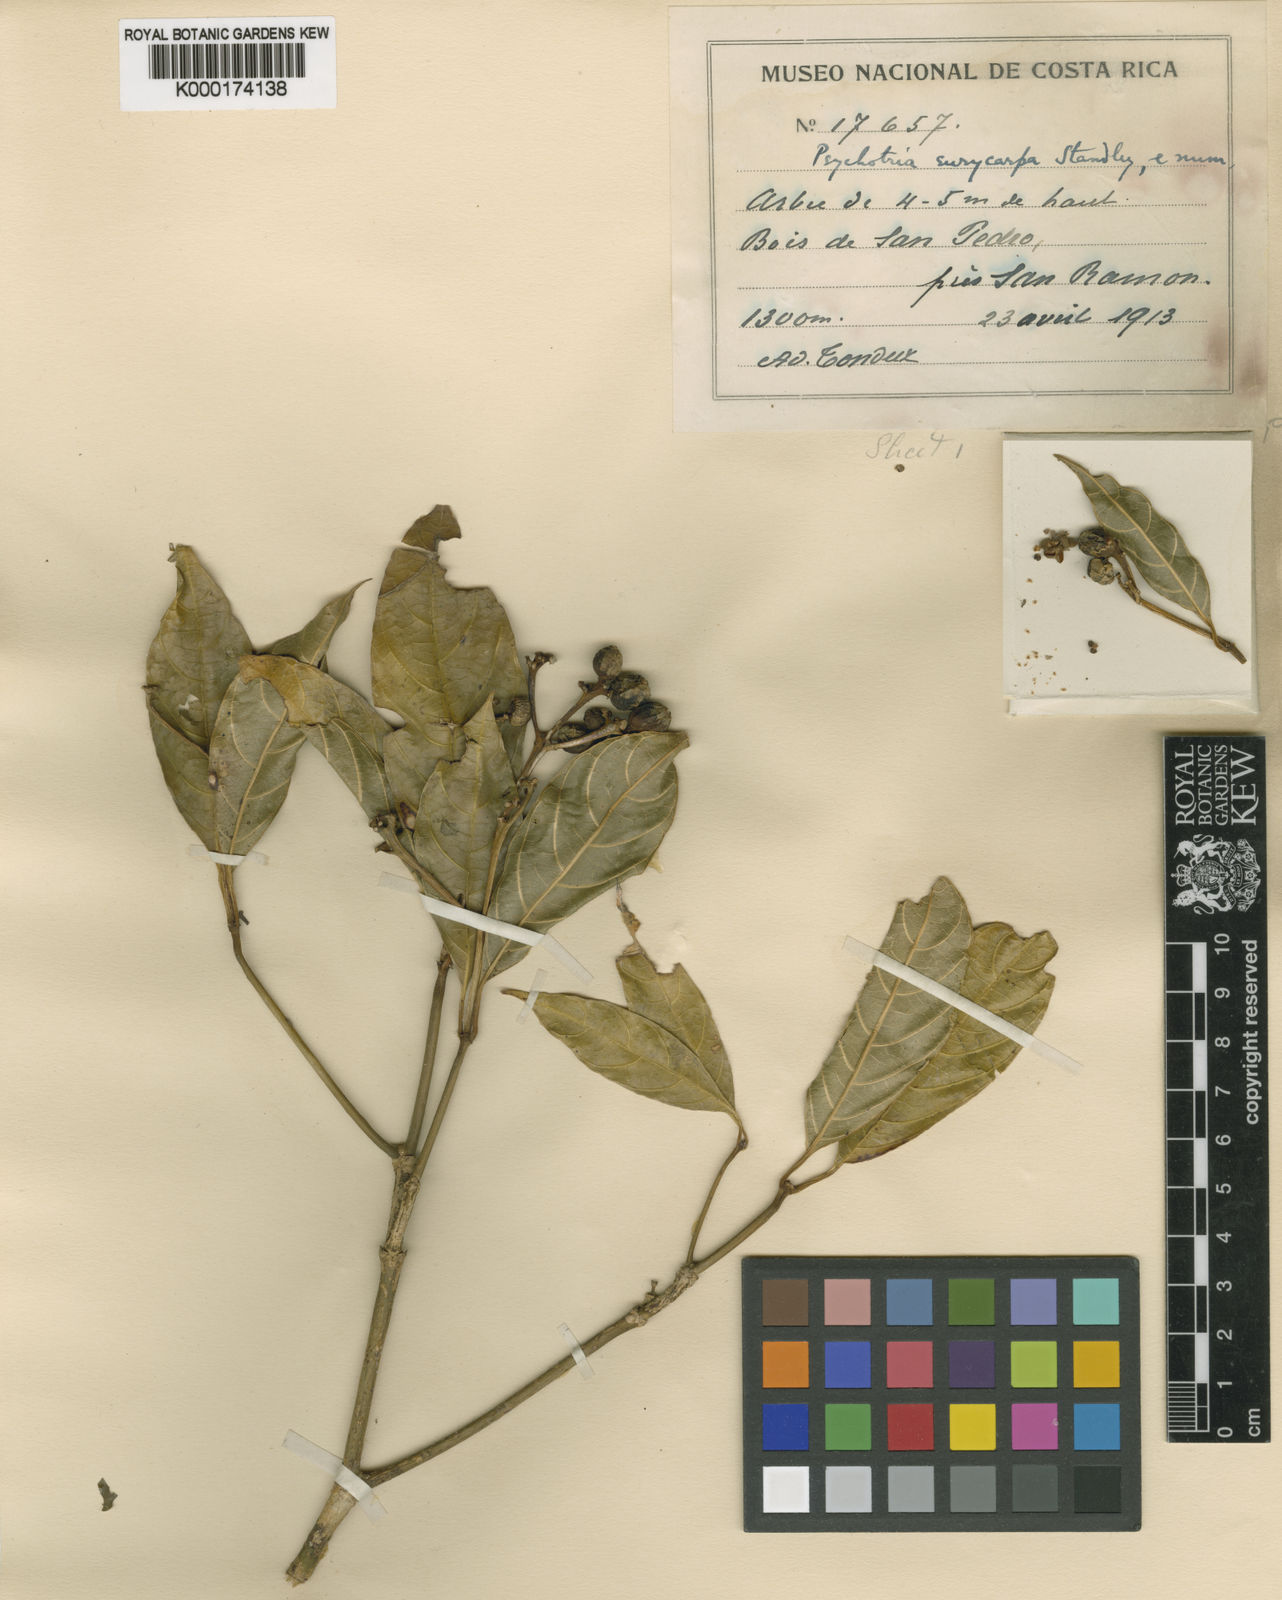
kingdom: Plantae
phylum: Tracheophyta
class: Magnoliopsida
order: Gentianales
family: Rubiaceae
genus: Palicourea
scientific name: Palicourea eurycarpa
